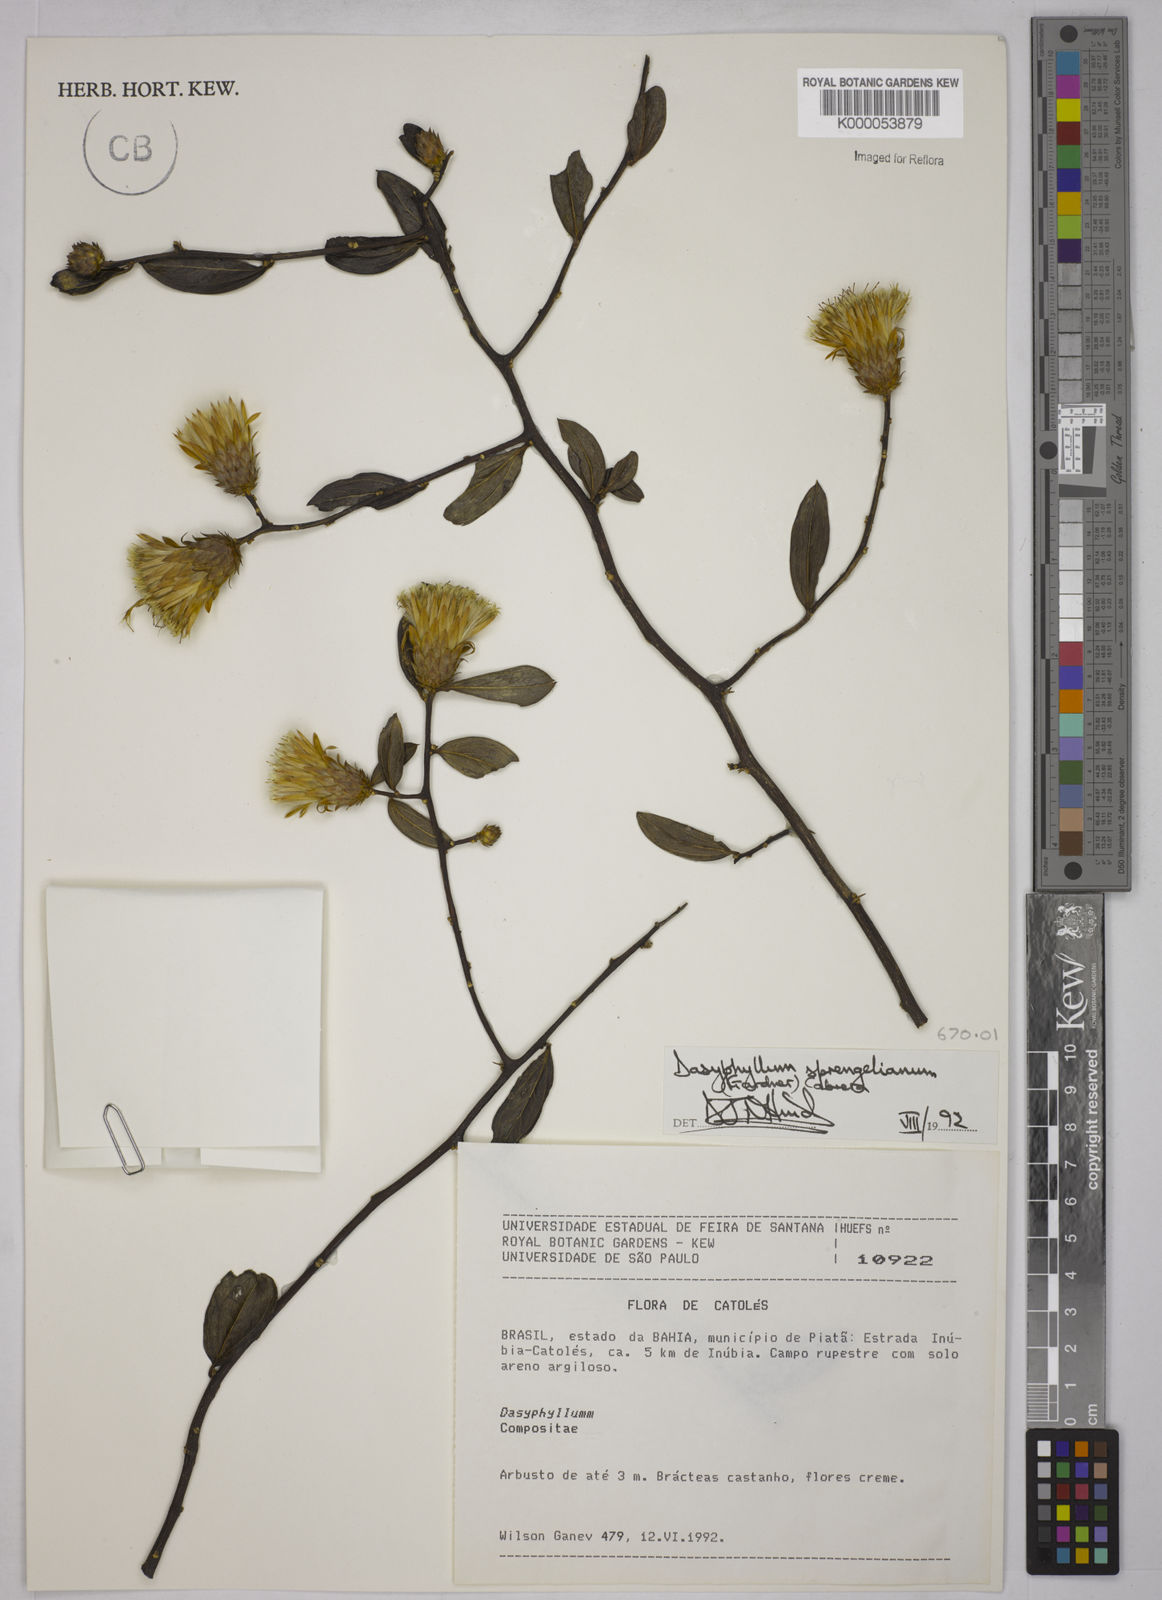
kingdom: Plantae
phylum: Tracheophyta
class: Magnoliopsida
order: Asterales
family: Asteraceae
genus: Dasyphyllum
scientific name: Dasyphyllum sprengelianum
